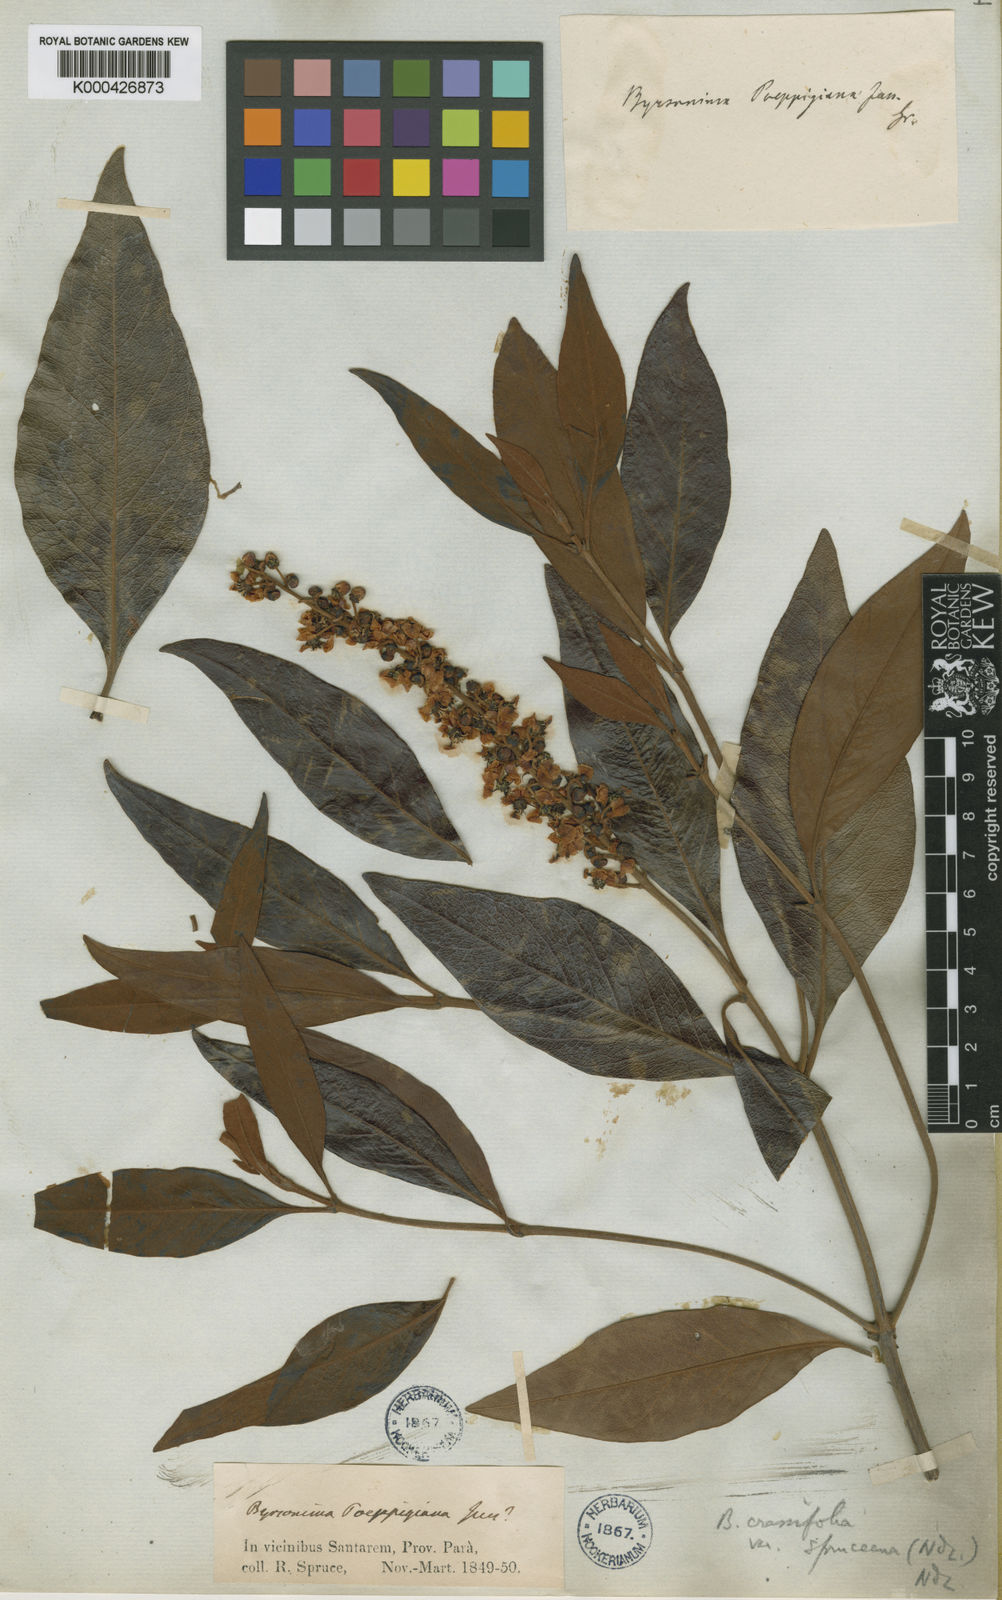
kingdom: Plantae
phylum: Tracheophyta
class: Magnoliopsida
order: Malpighiales
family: Malpighiaceae
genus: Byrsonima
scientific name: Byrsonima crassifolia
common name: Golden spoon
